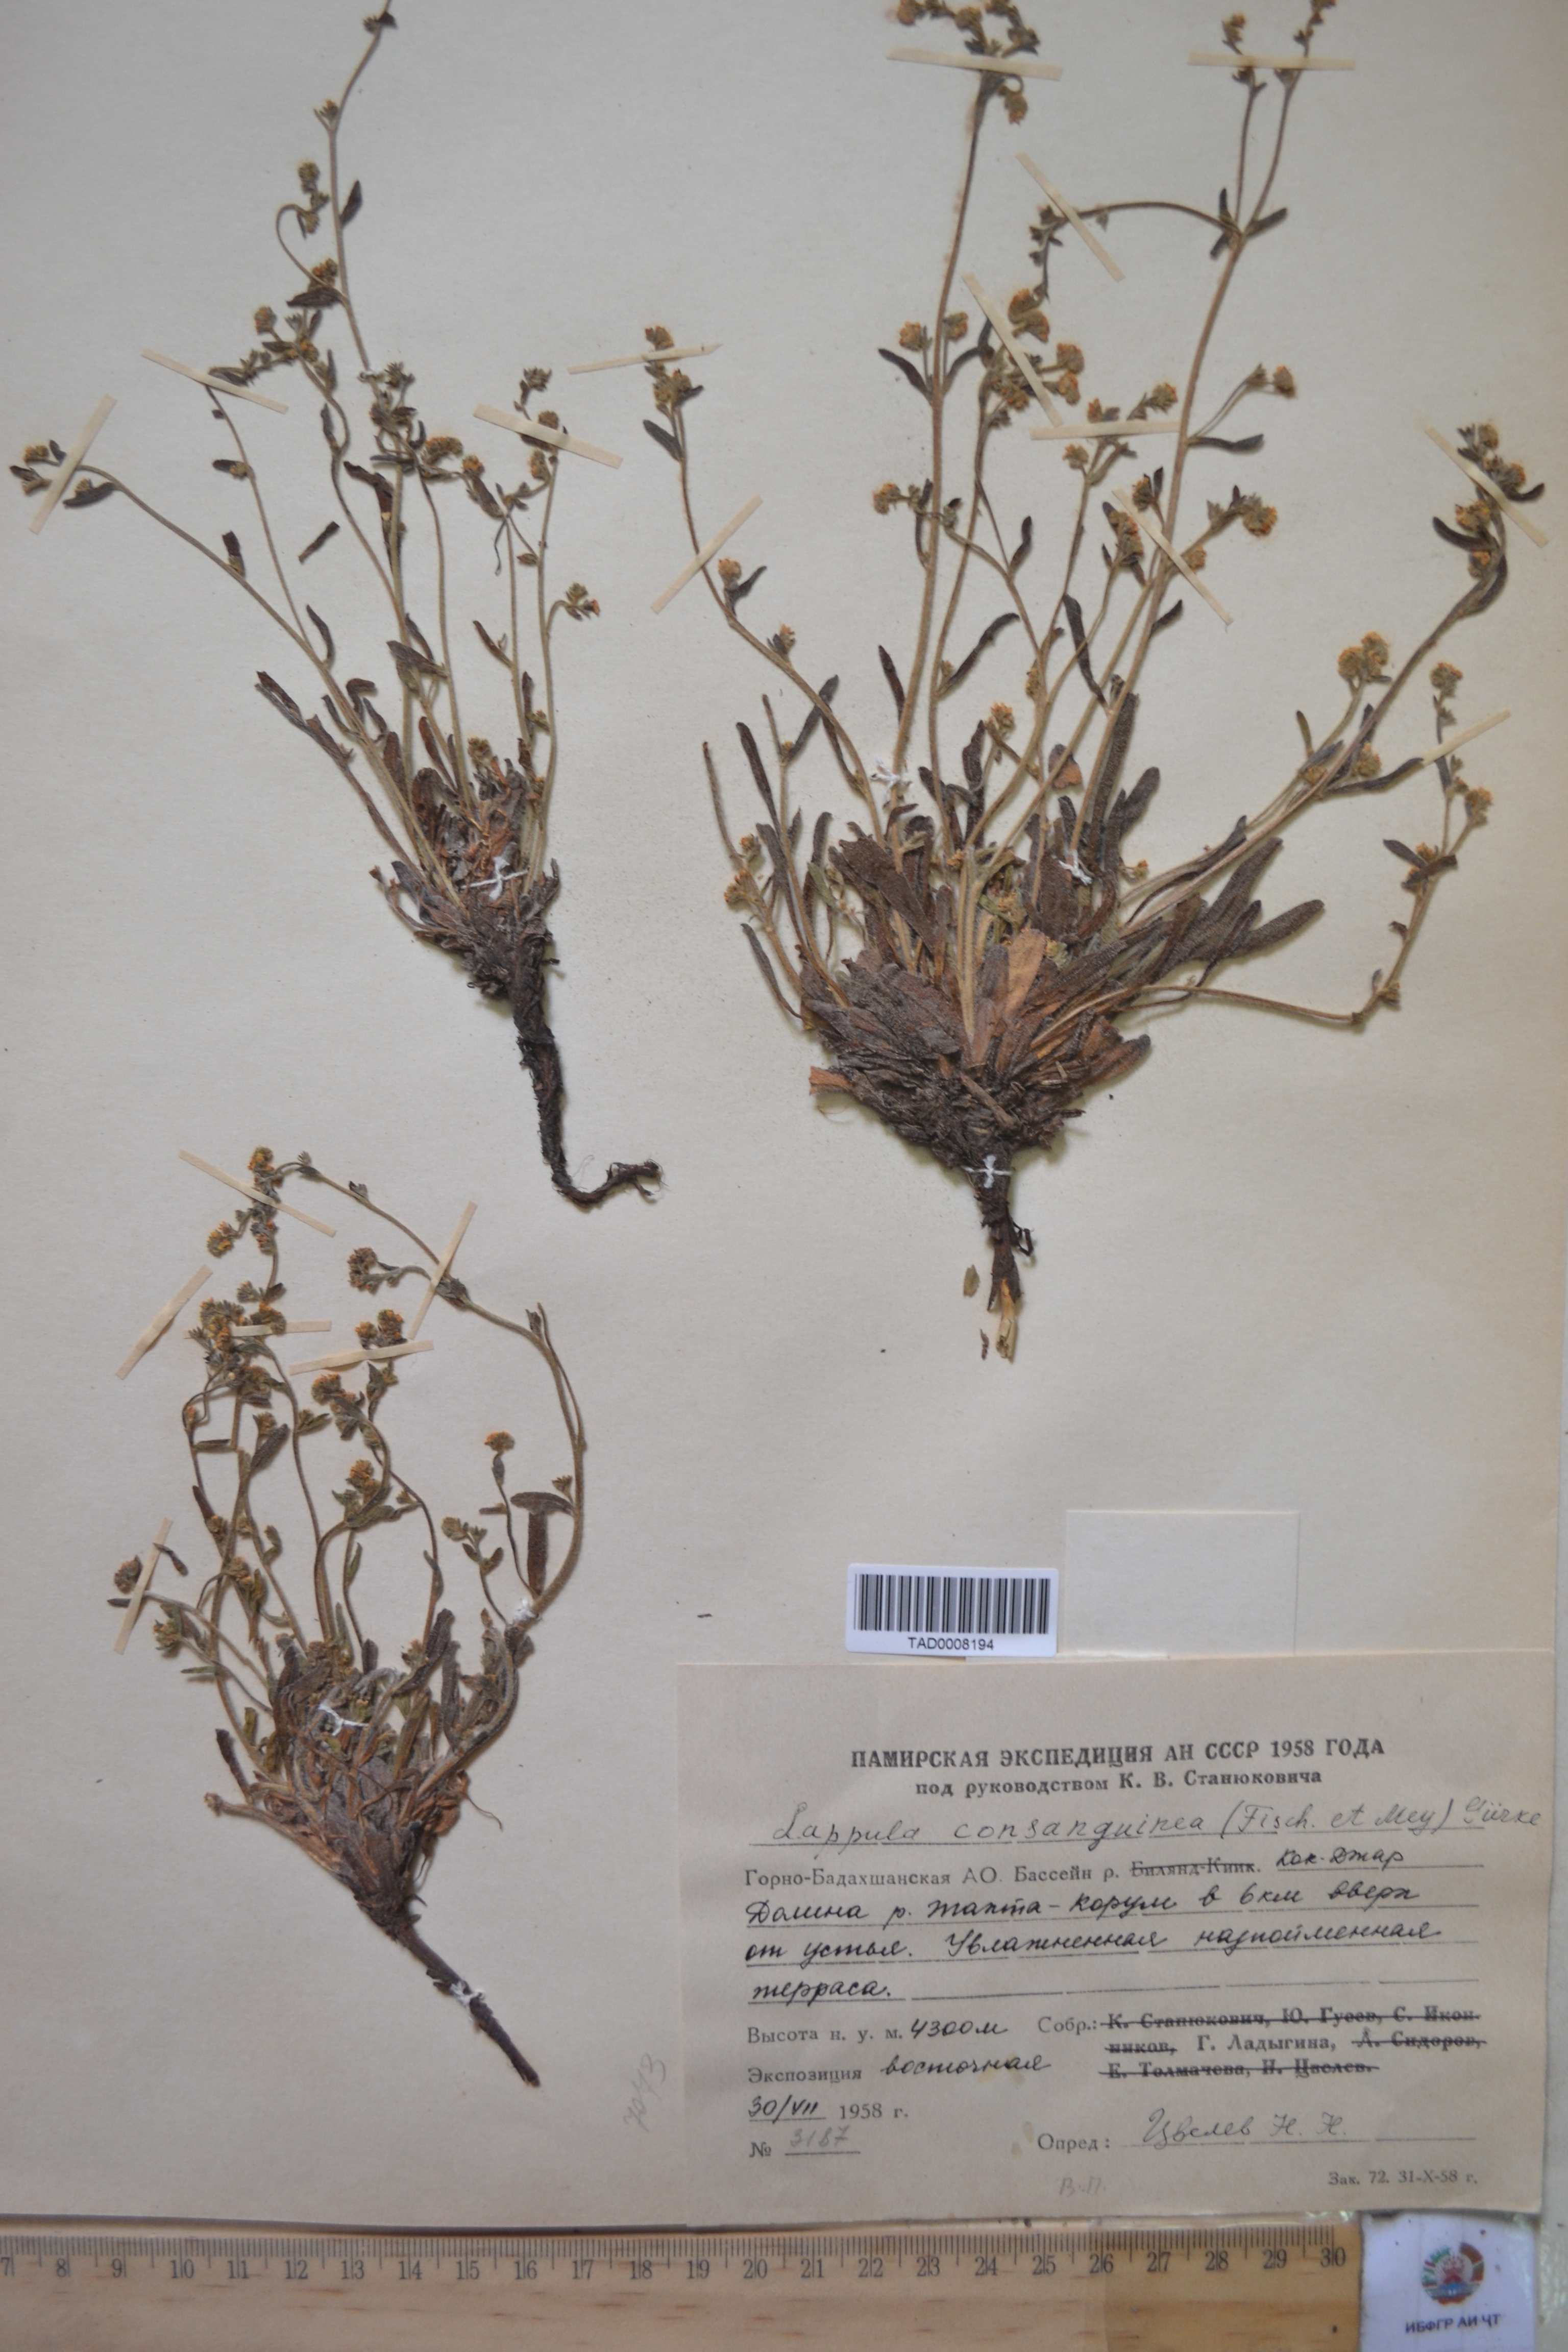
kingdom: Plantae
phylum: Tracheophyta
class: Magnoliopsida
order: Boraginales
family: Boraginaceae
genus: Lappula
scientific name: Lappula squarrosa
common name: European stickseed
